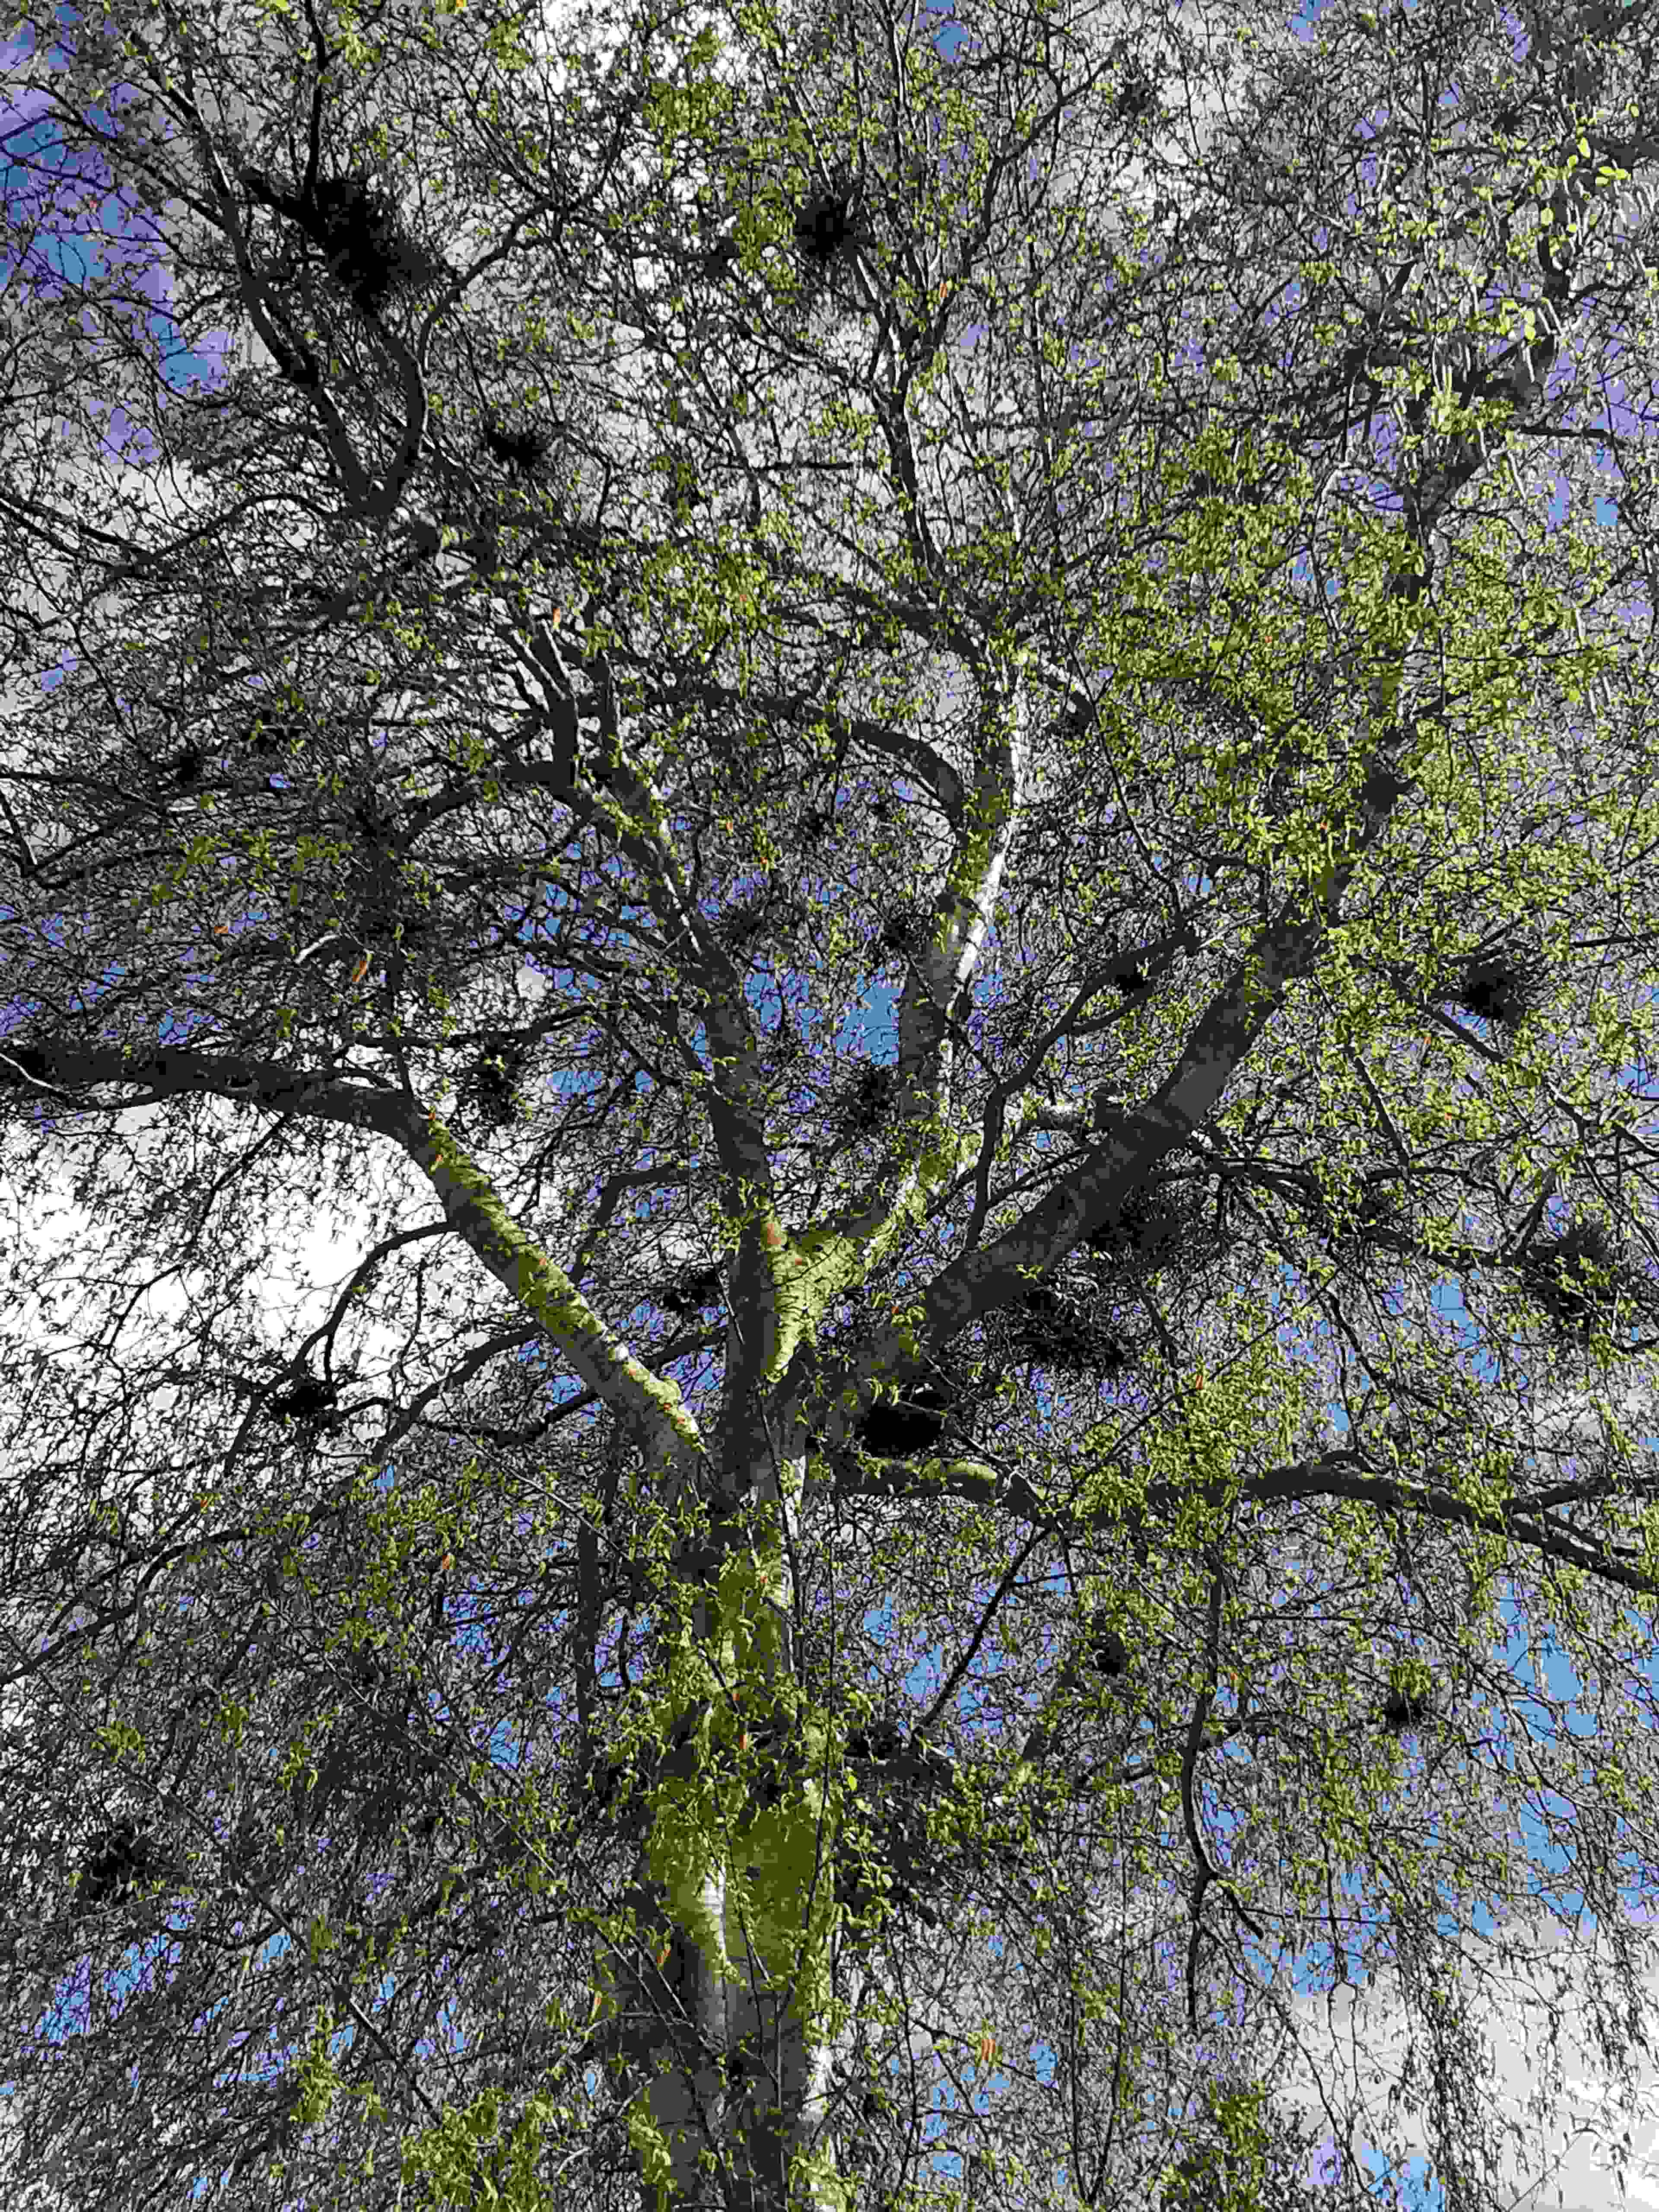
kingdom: Fungi
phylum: Ascomycota
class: Taphrinomycetes
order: Taphrinales
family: Taphrinaceae
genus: Taphrina
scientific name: Taphrina betulina
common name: hekse-sækdug
